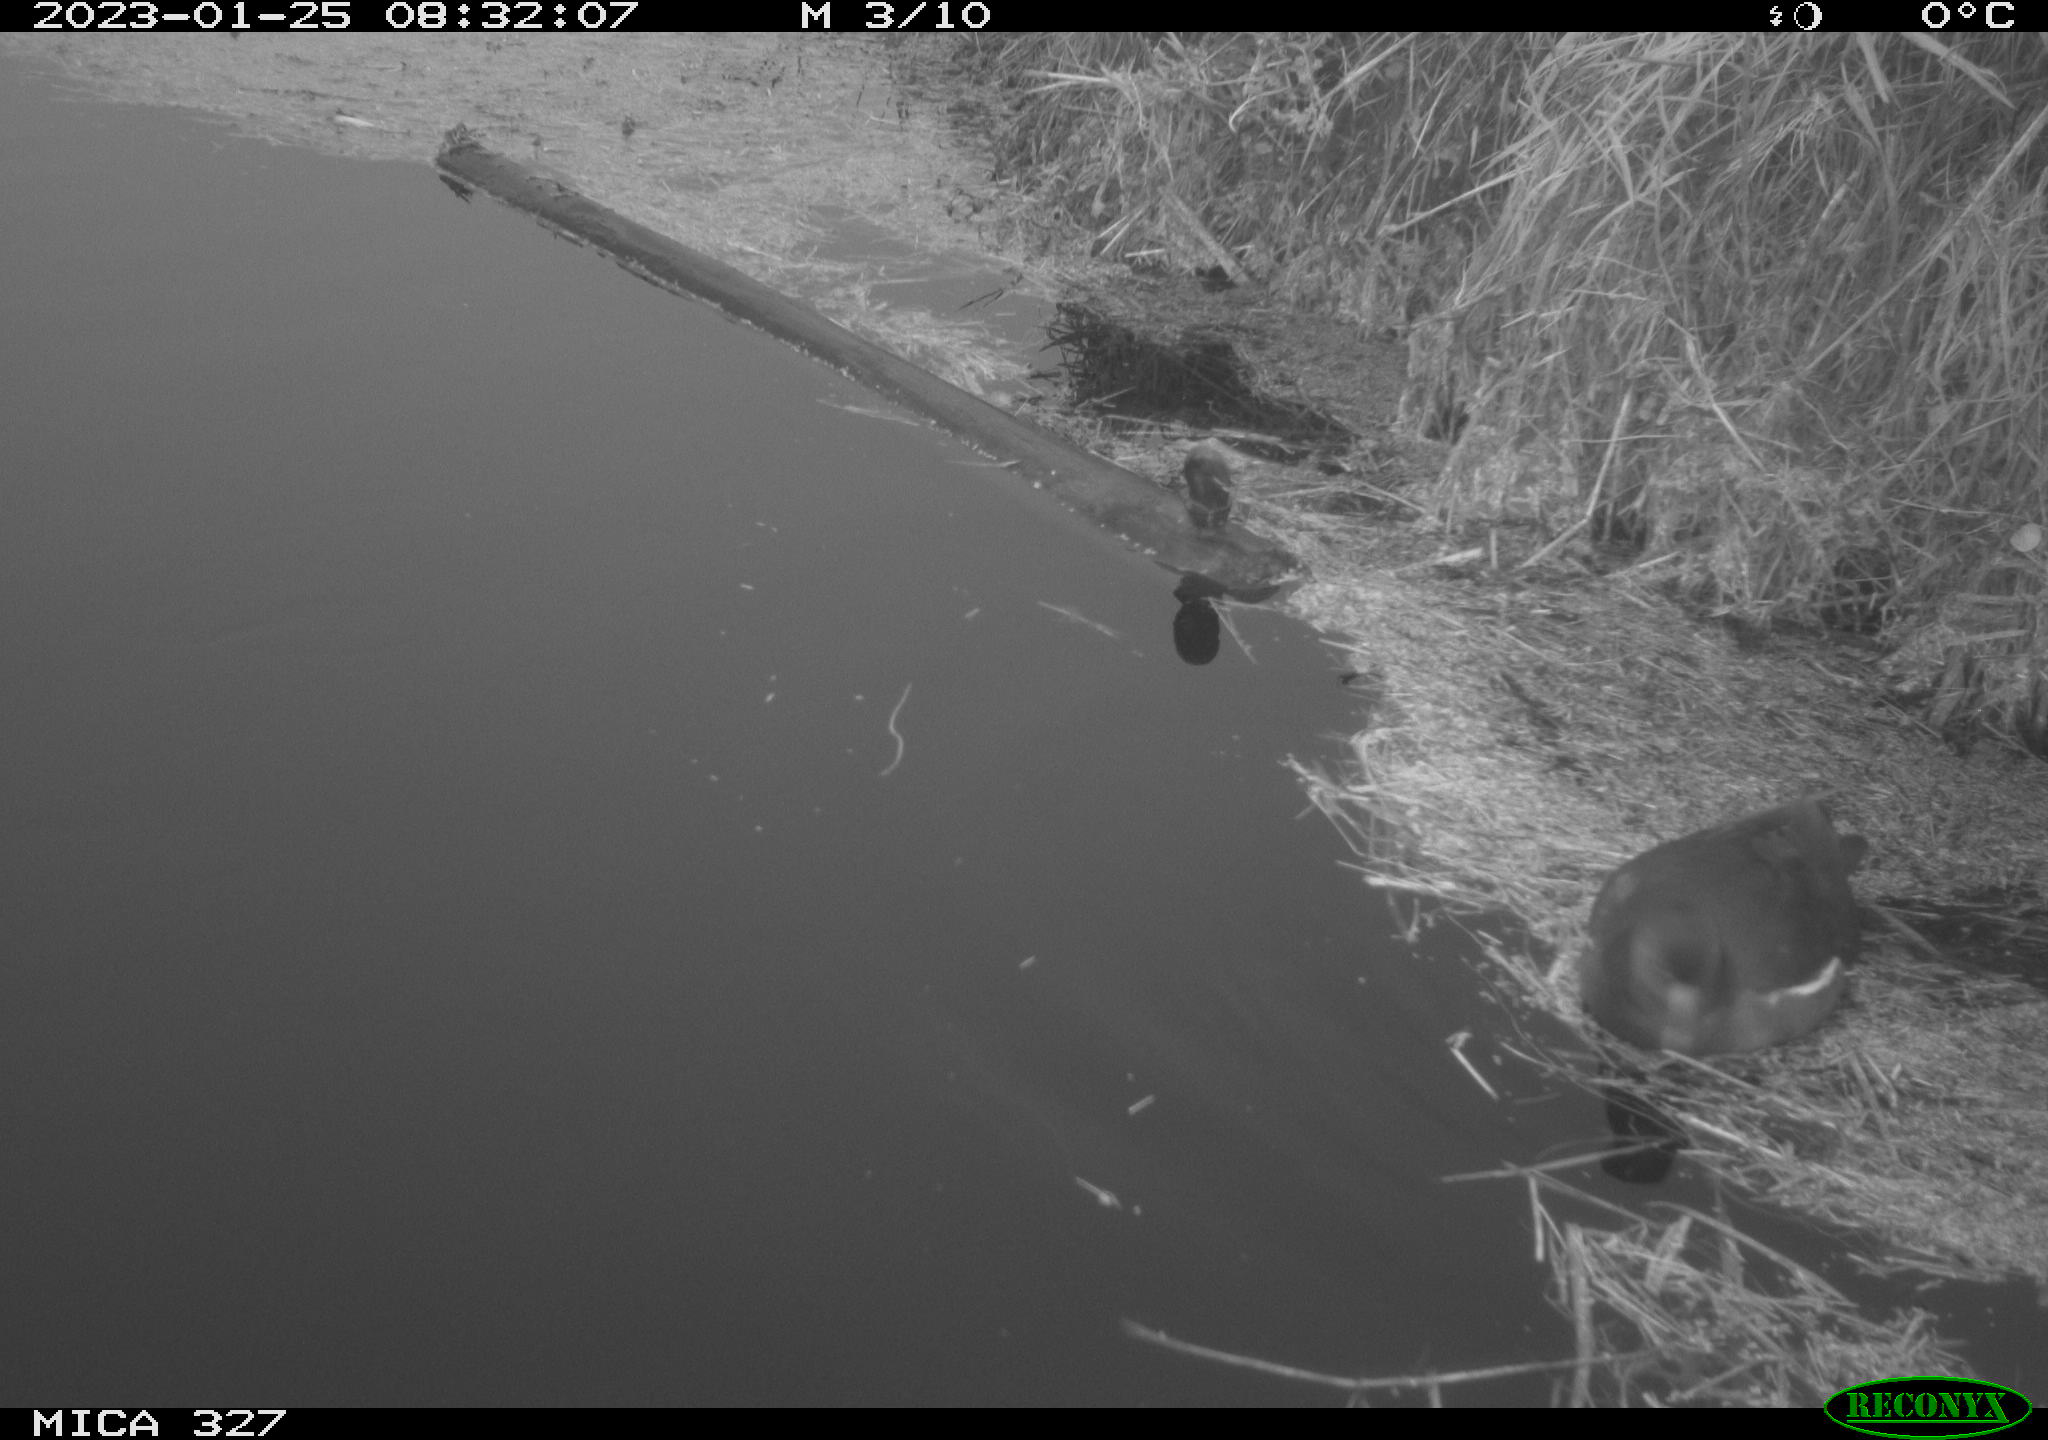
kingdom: Animalia
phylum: Chordata
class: Aves
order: Gruiformes
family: Rallidae
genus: Gallinula
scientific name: Gallinula chloropus
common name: Common moorhen
